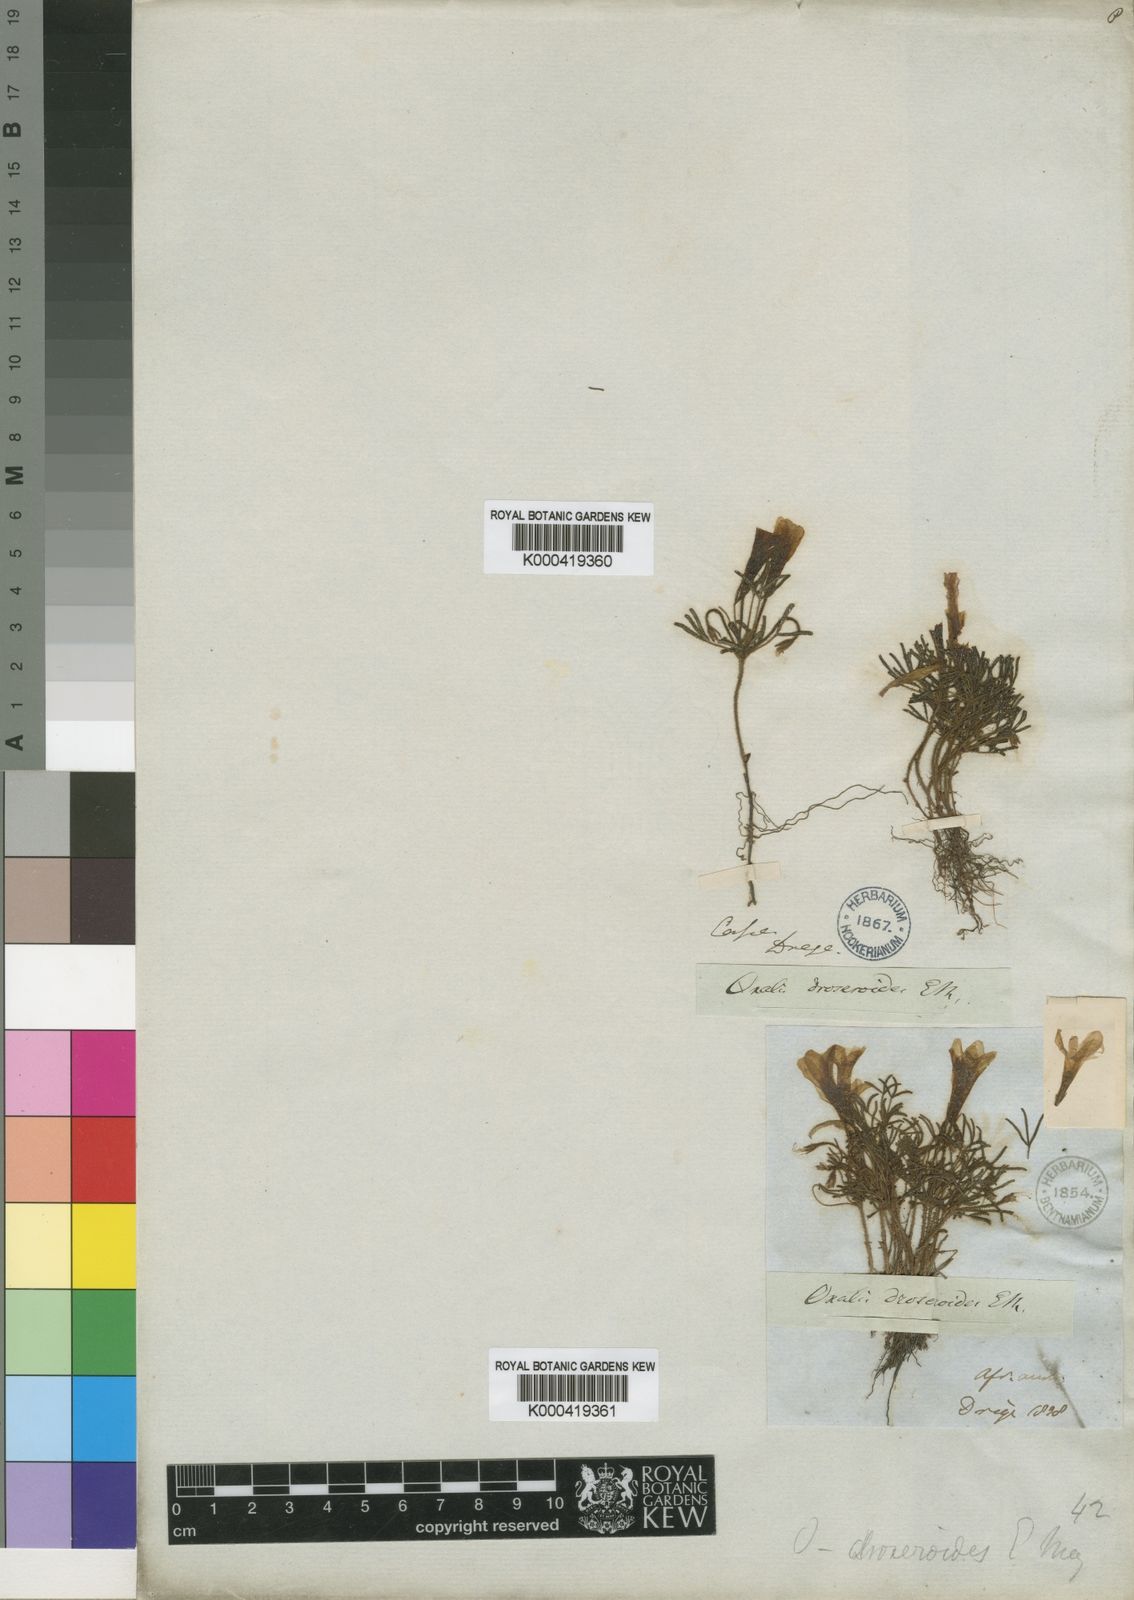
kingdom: Plantae
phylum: Tracheophyta
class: Magnoliopsida
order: Oxalidales
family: Oxalidaceae
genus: Oxalis
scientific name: Oxalis droseroides
